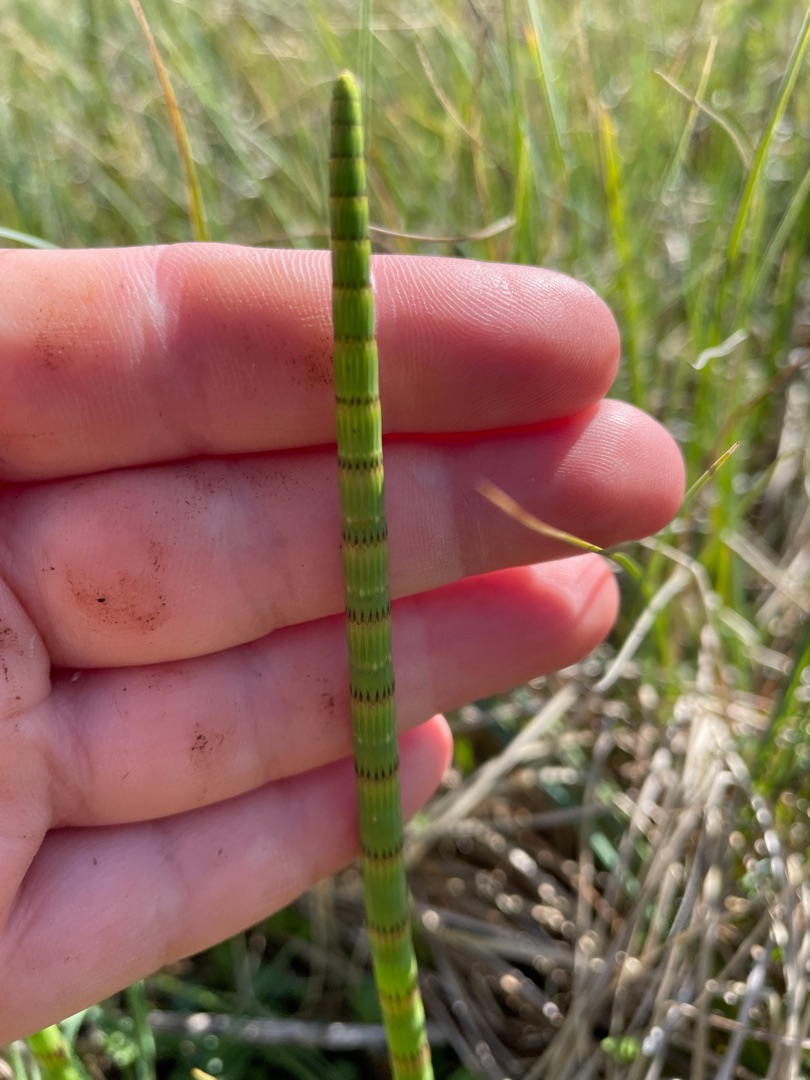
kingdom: Plantae
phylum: Tracheophyta
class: Polypodiopsida
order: Equisetales
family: Equisetaceae
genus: Equisetum
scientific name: Equisetum fluviatile
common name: Dynd-padderok
